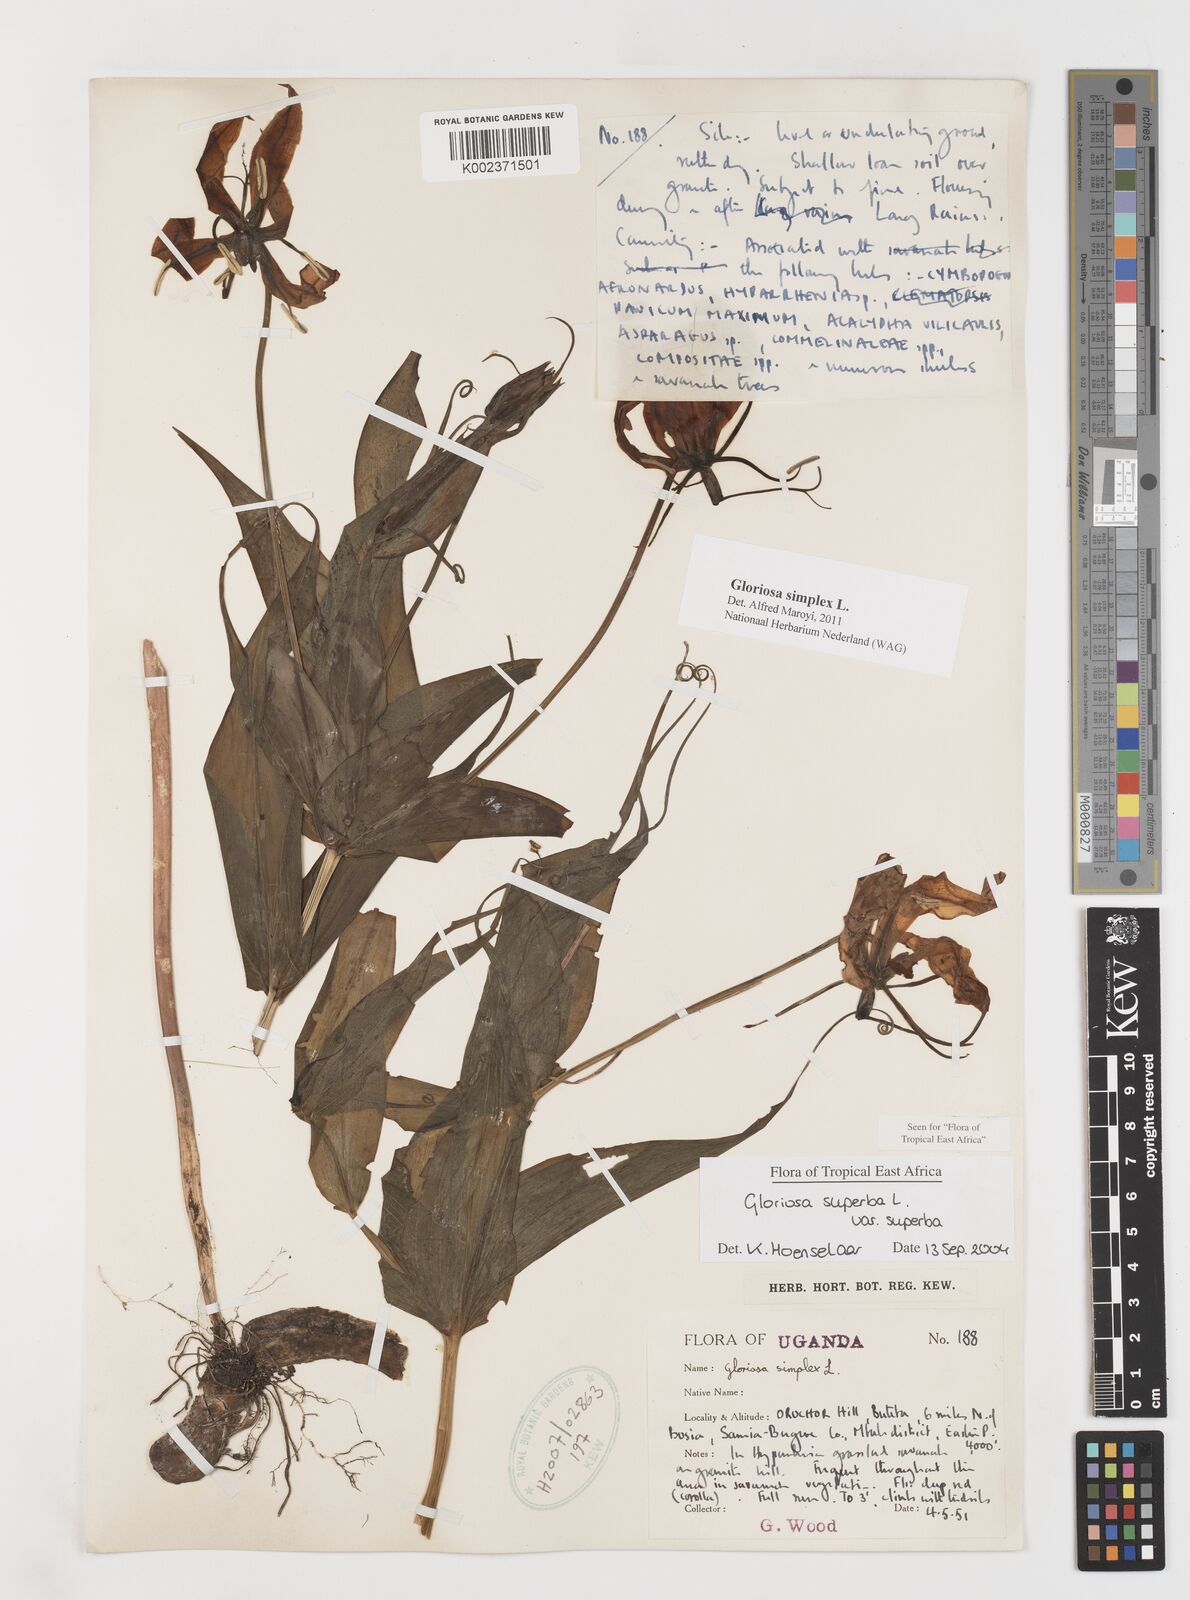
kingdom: Plantae
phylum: Tracheophyta
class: Liliopsida
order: Liliales
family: Colchicaceae
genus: Gloriosa
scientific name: Gloriosa simplex
